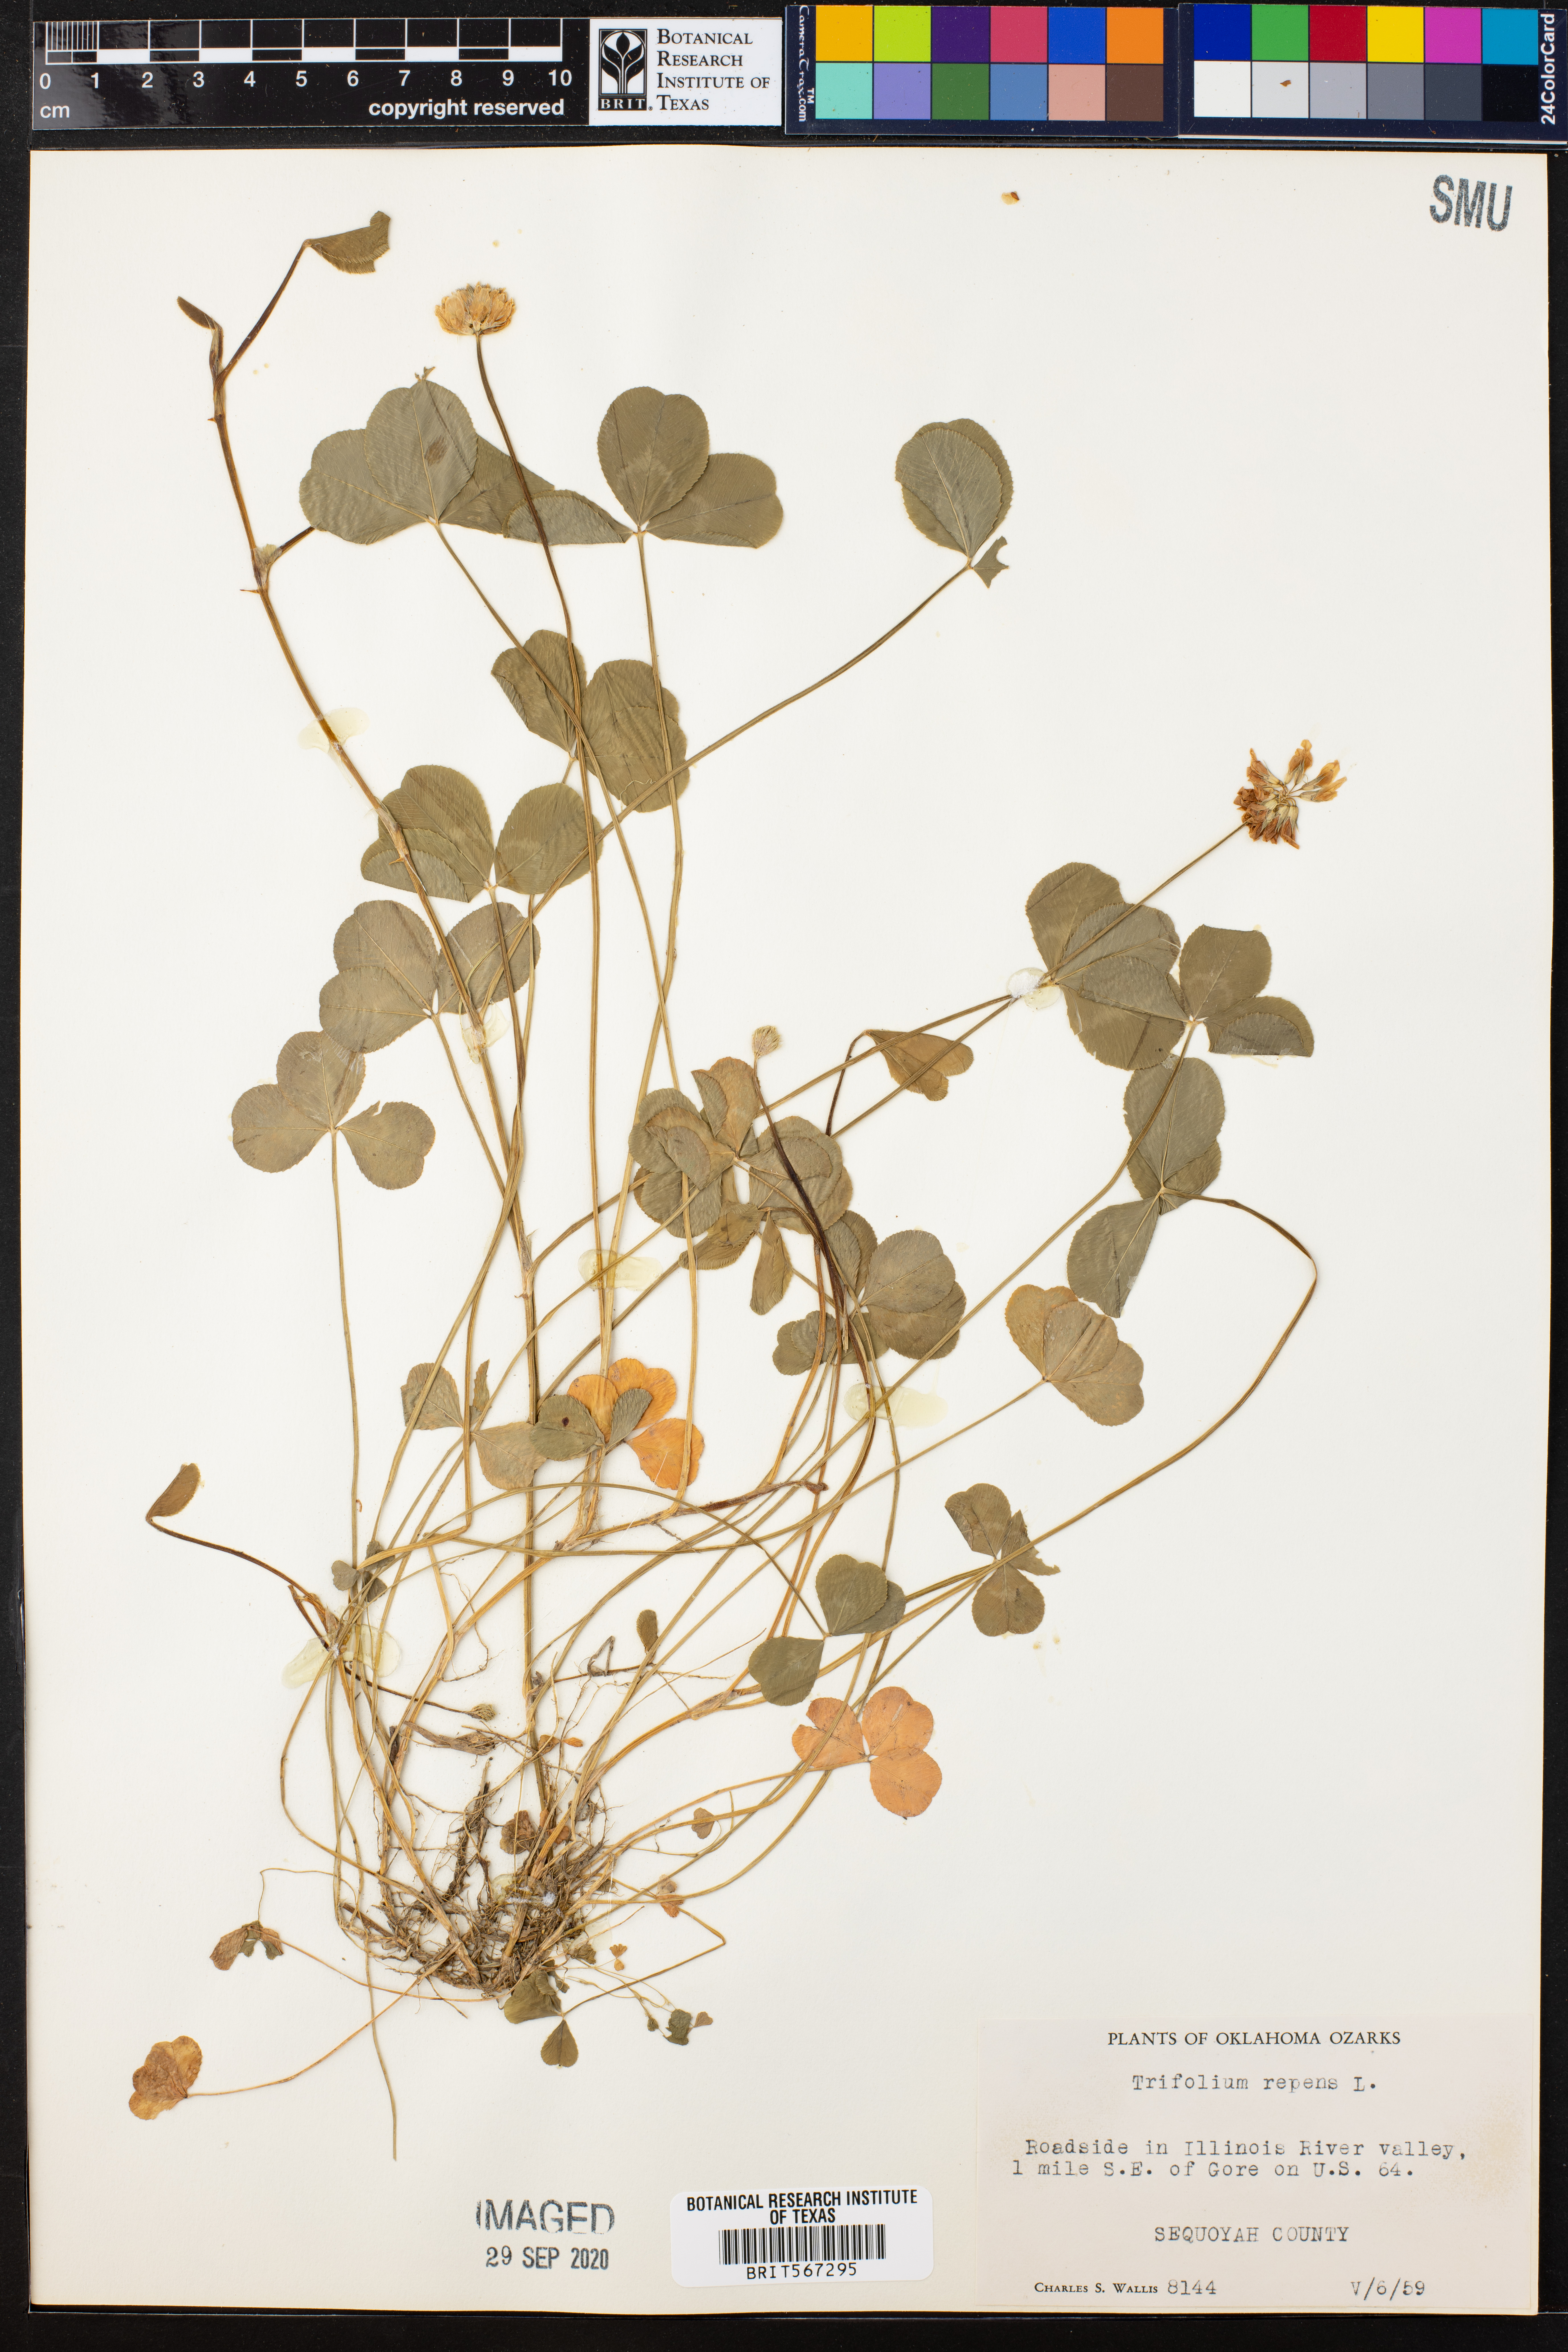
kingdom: Plantae
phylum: Tracheophyta
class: Magnoliopsida
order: Fabales
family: Fabaceae
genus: Trifolium
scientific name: Trifolium repens
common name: White clover
